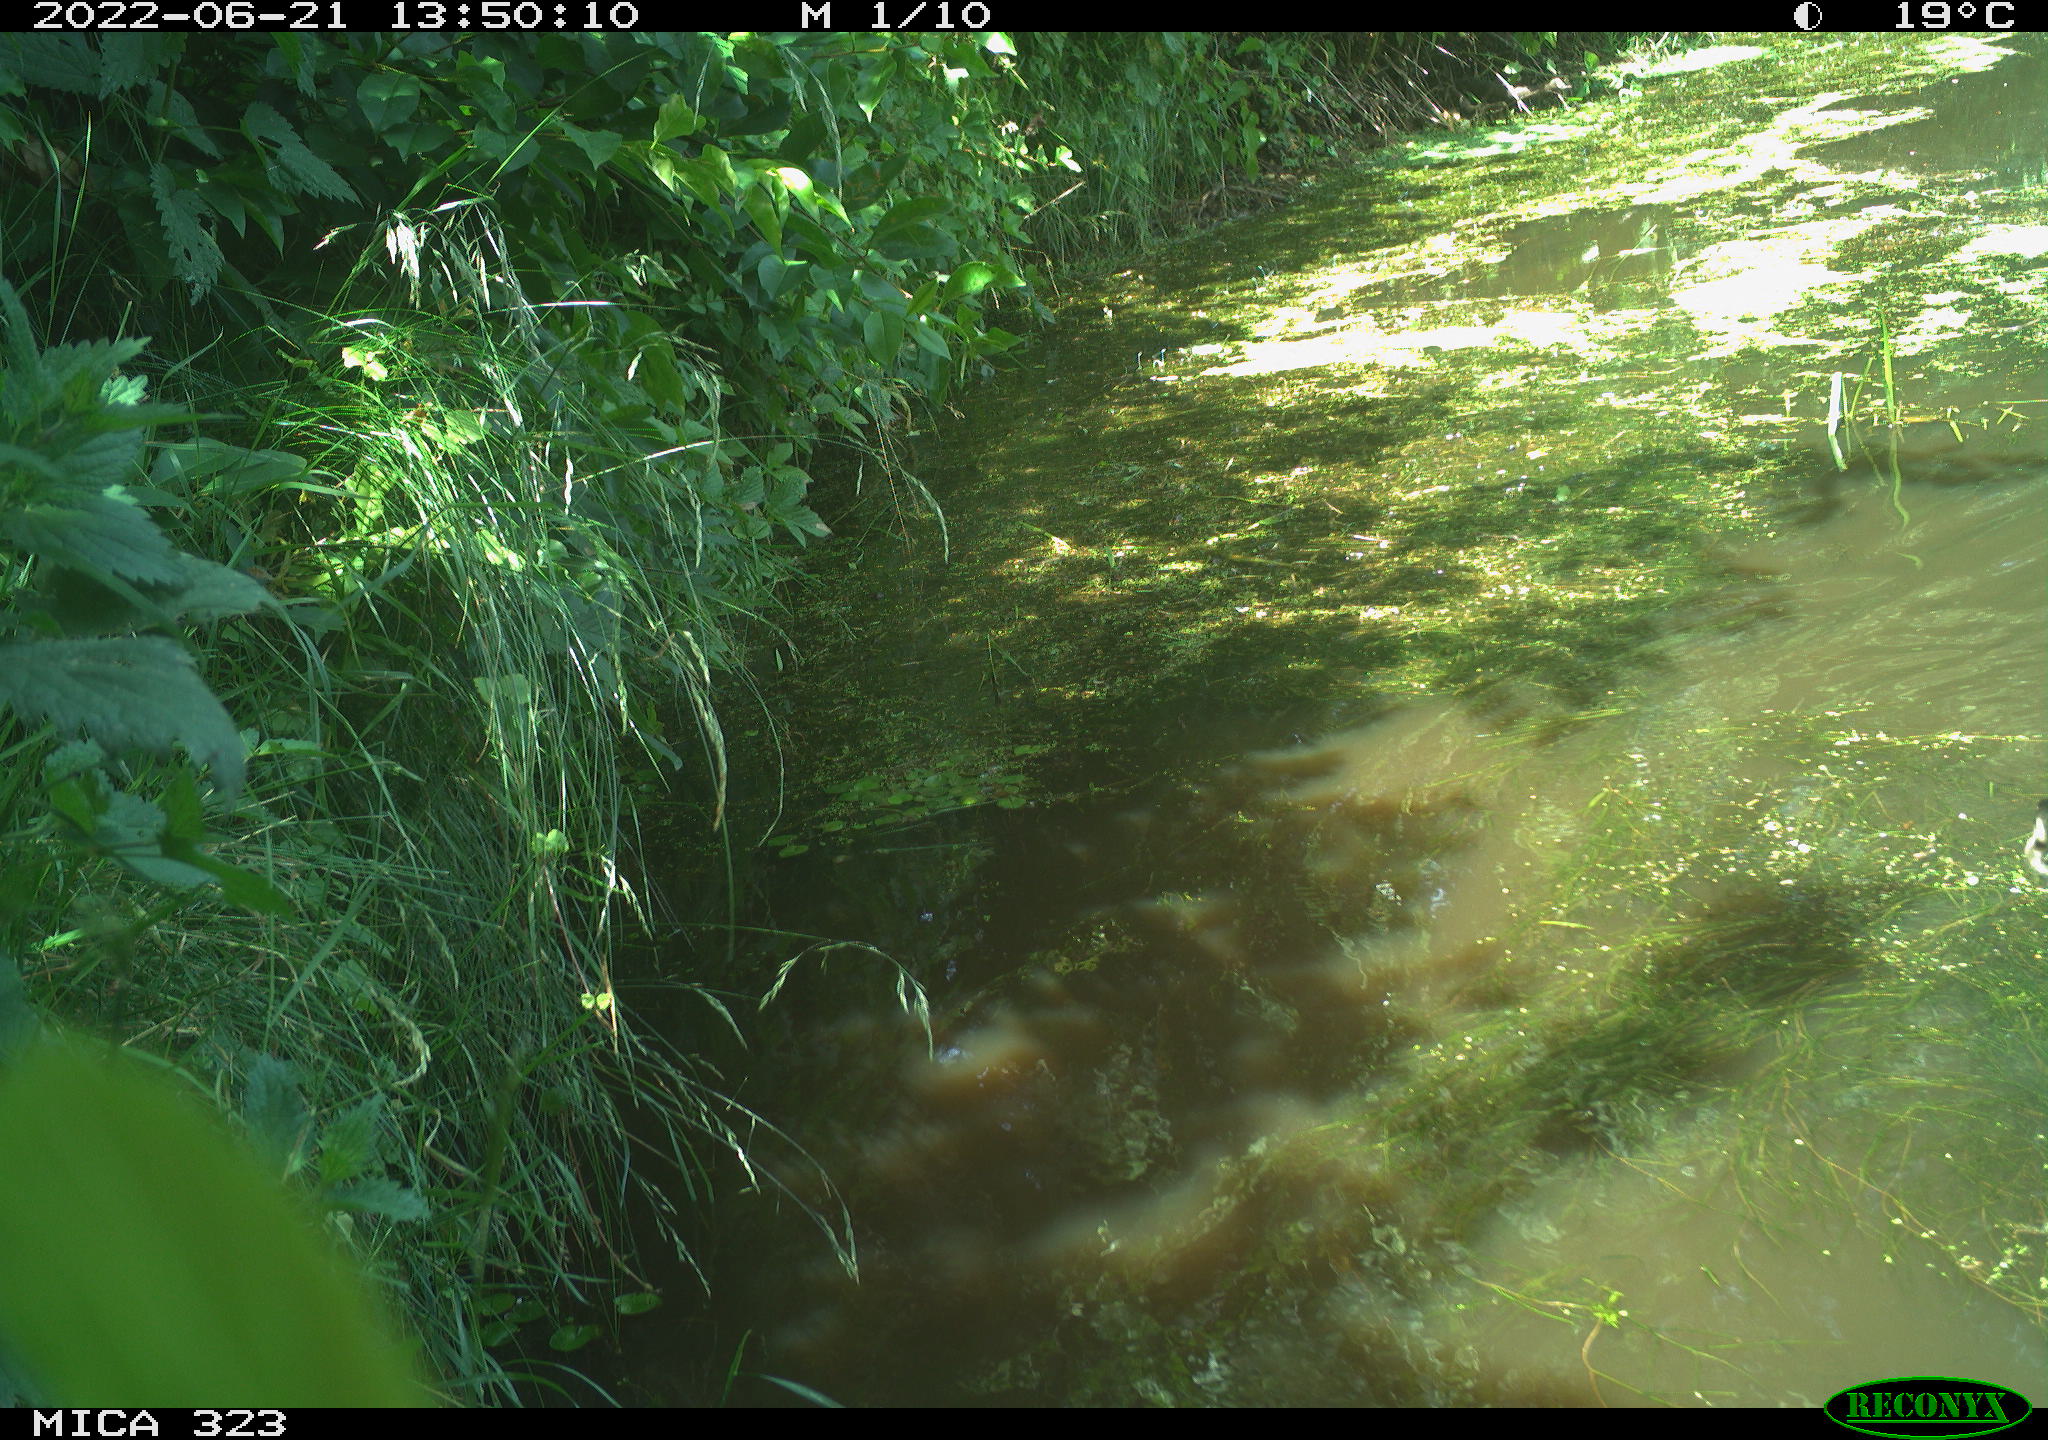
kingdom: Animalia
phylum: Chordata
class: Aves
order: Anseriformes
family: Anatidae
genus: Anas
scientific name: Anas
